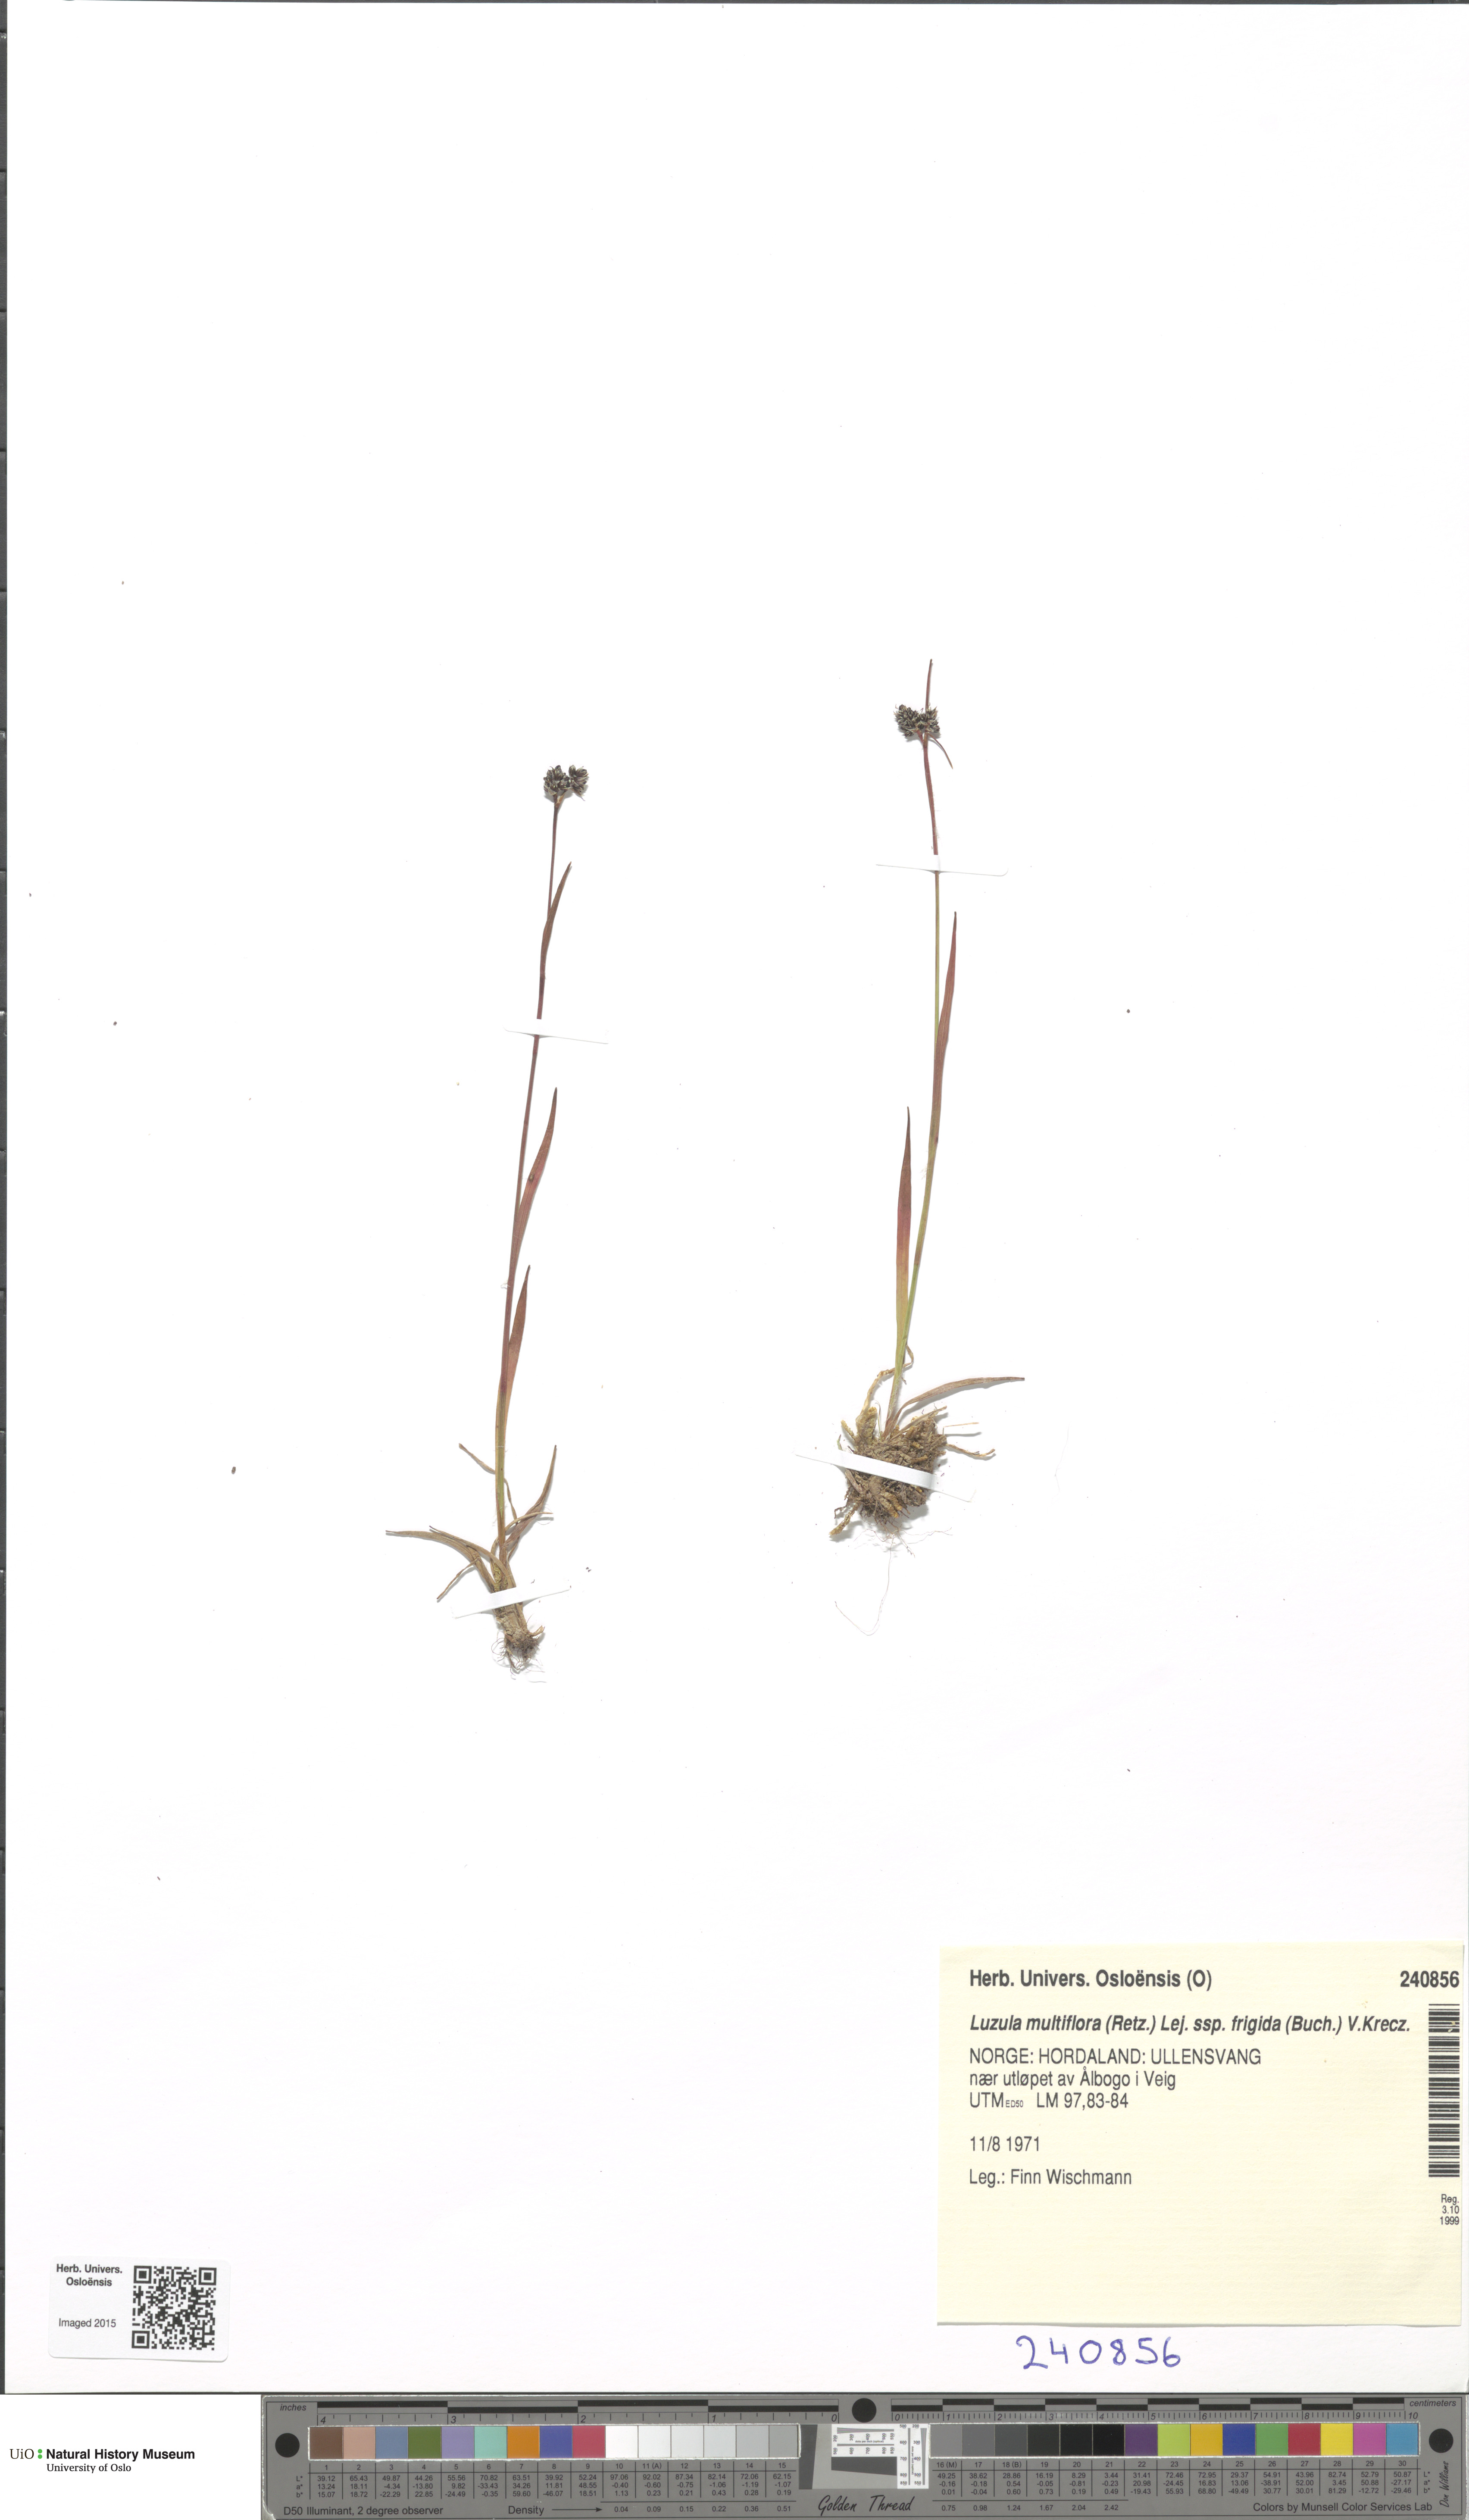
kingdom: Plantae
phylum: Tracheophyta
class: Liliopsida
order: Poales
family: Juncaceae
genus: Luzula
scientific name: Luzula multiflora
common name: Heath wood-rush
